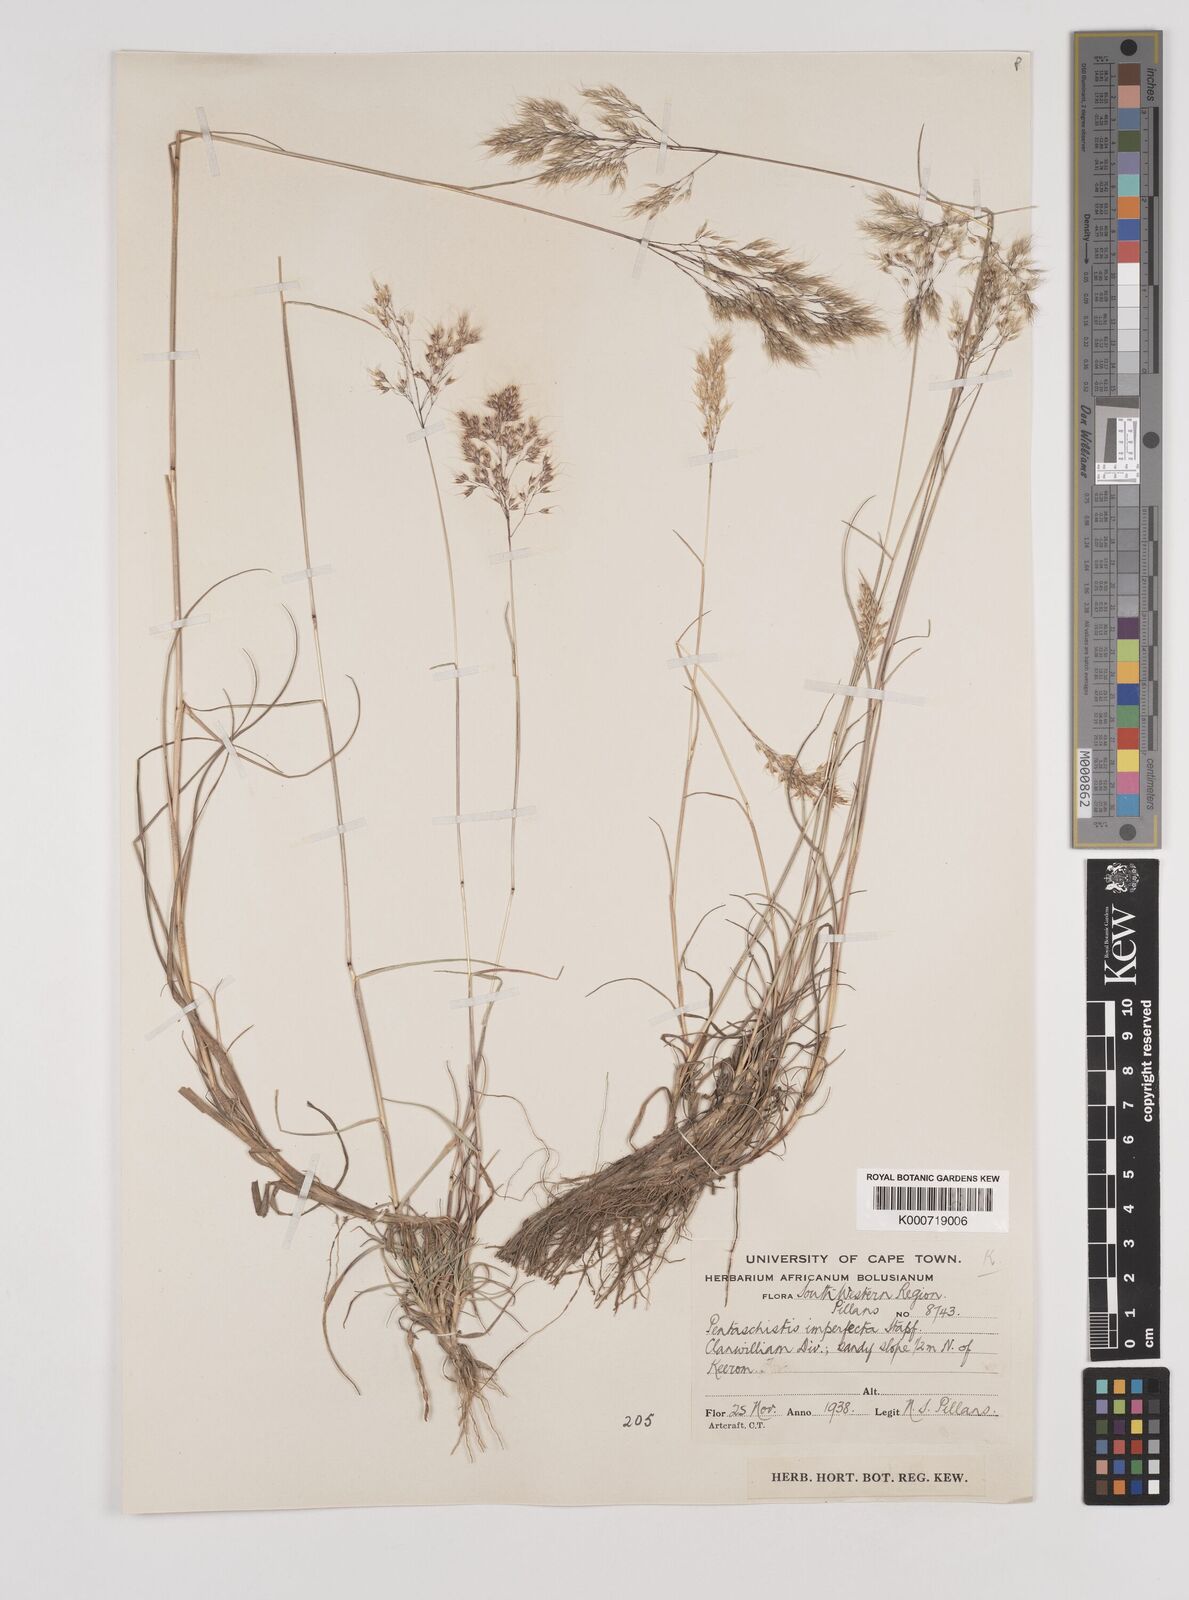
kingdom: Plantae
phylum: Tracheophyta
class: Liliopsida
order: Poales
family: Poaceae
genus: Pentameris
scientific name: Pentameris pallida
